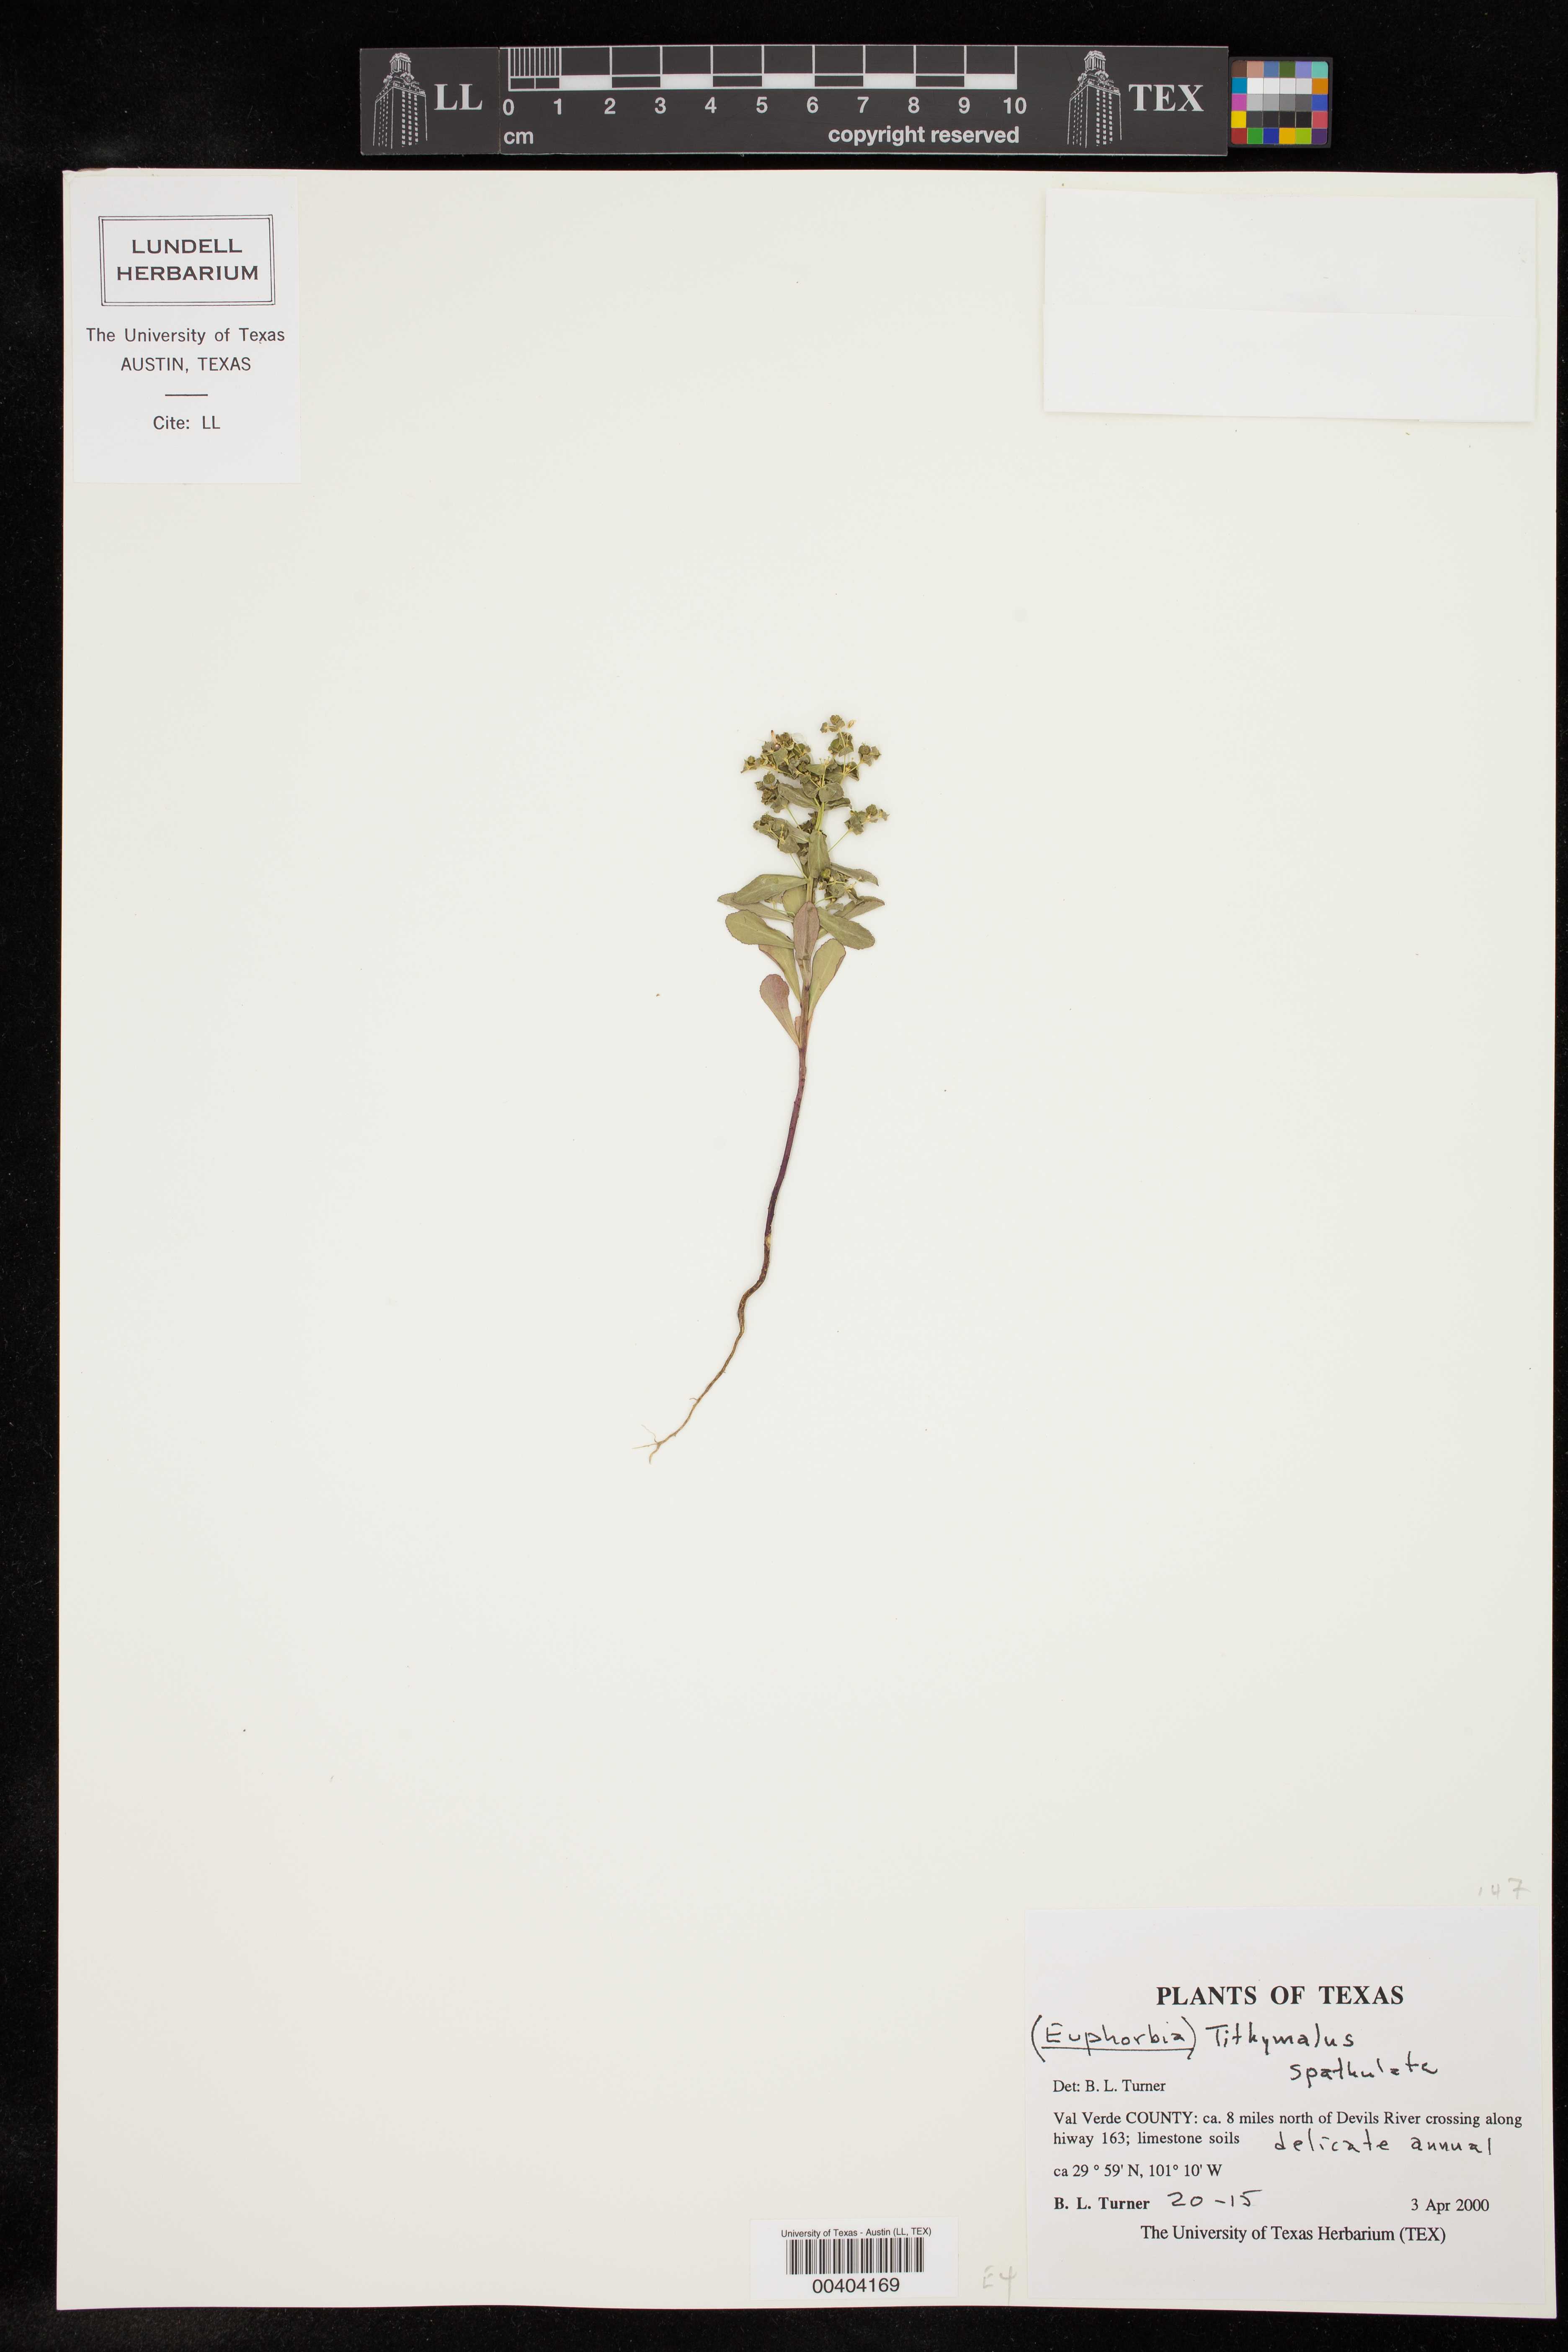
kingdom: Plantae
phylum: Tracheophyta
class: Magnoliopsida
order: Malpighiales
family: Euphorbiaceae
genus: Euphorbia
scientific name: Euphorbia spathulata
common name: Blunt spurge
